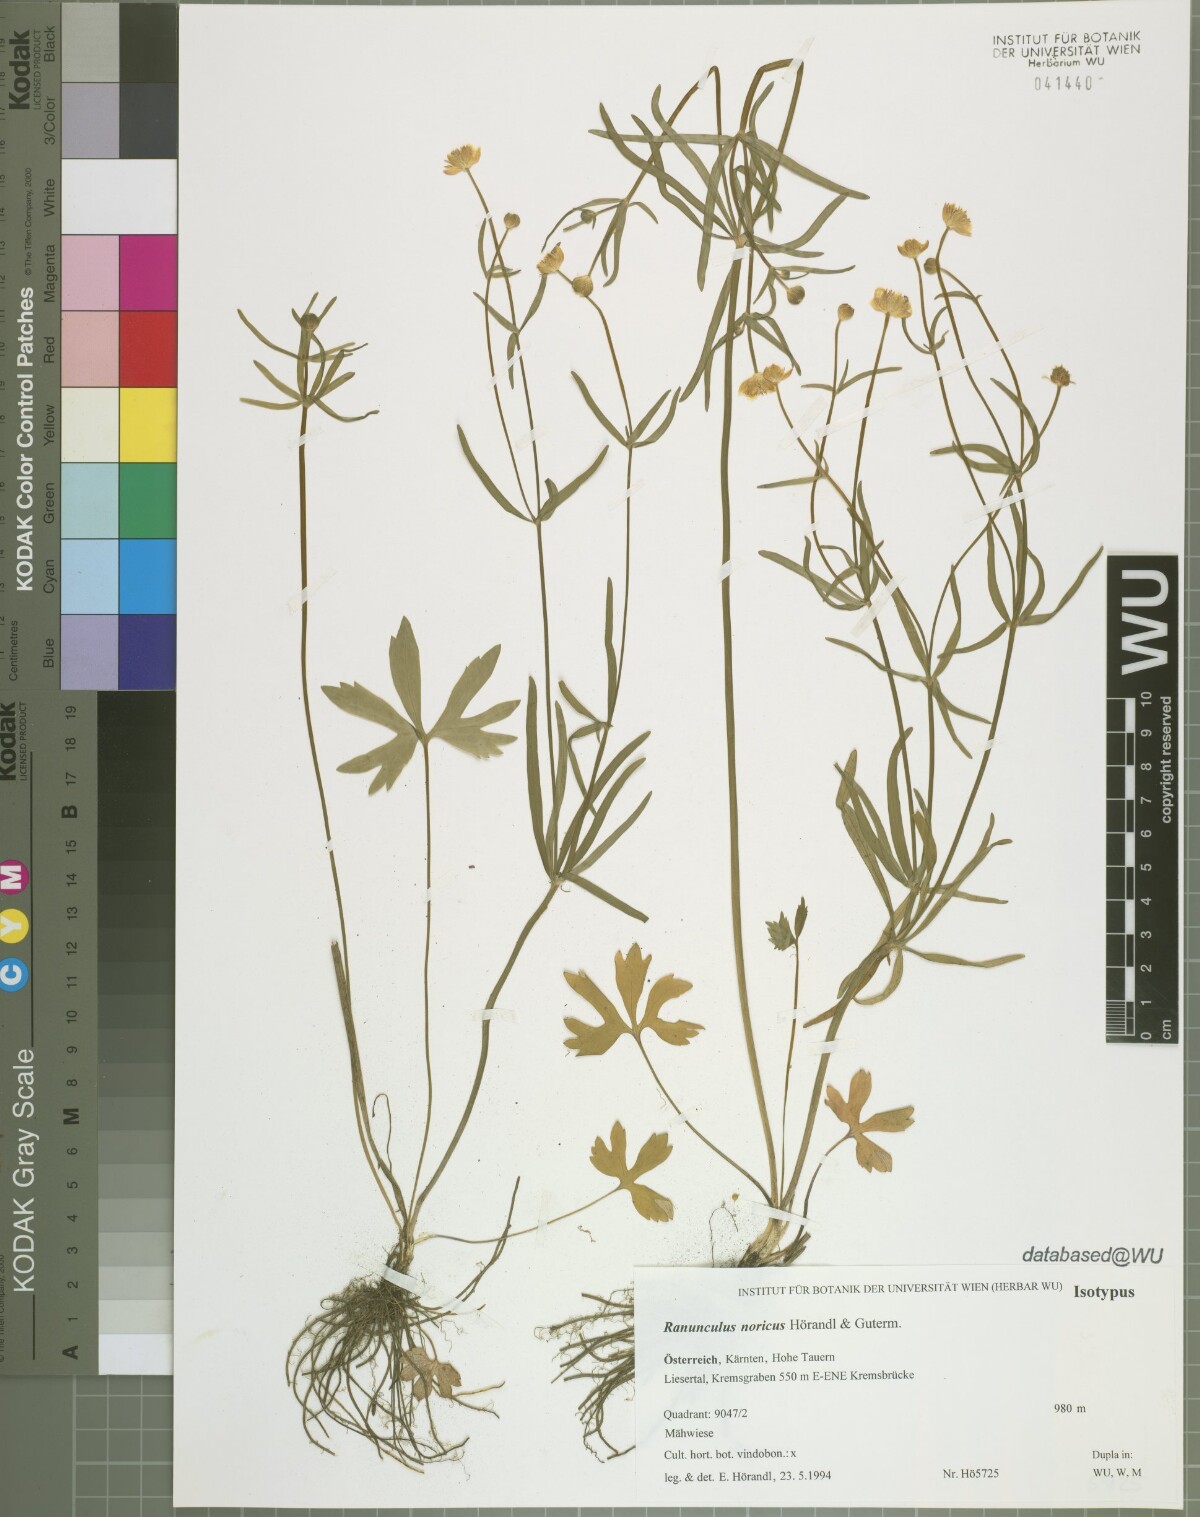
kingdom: Plantae
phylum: Tracheophyta
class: Magnoliopsida
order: Ranunculales
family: Ranunculaceae
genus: Ranunculus
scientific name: Ranunculus noricus
